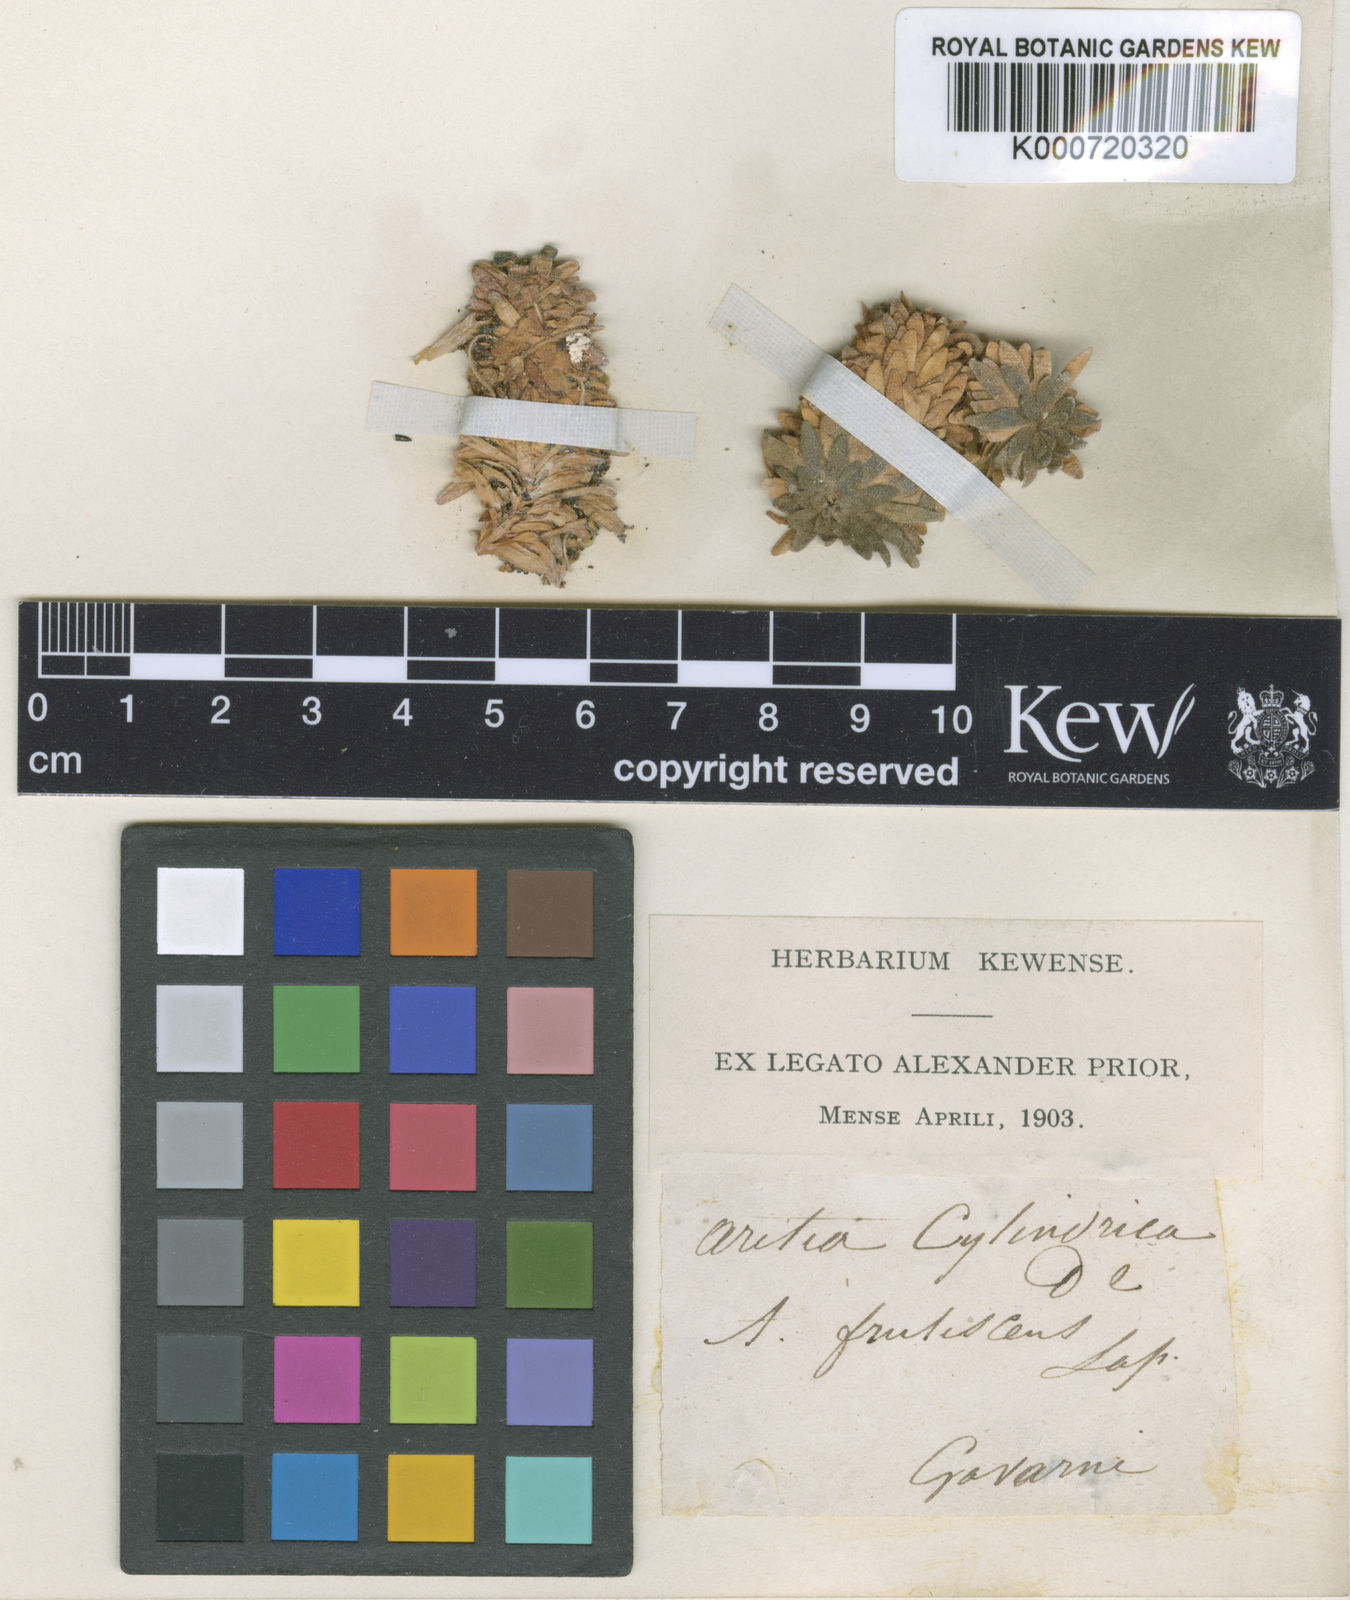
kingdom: Plantae
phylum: Tracheophyta
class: Magnoliopsida
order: Ericales
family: Primulaceae
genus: Androsace
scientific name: Androsace cylindrica
